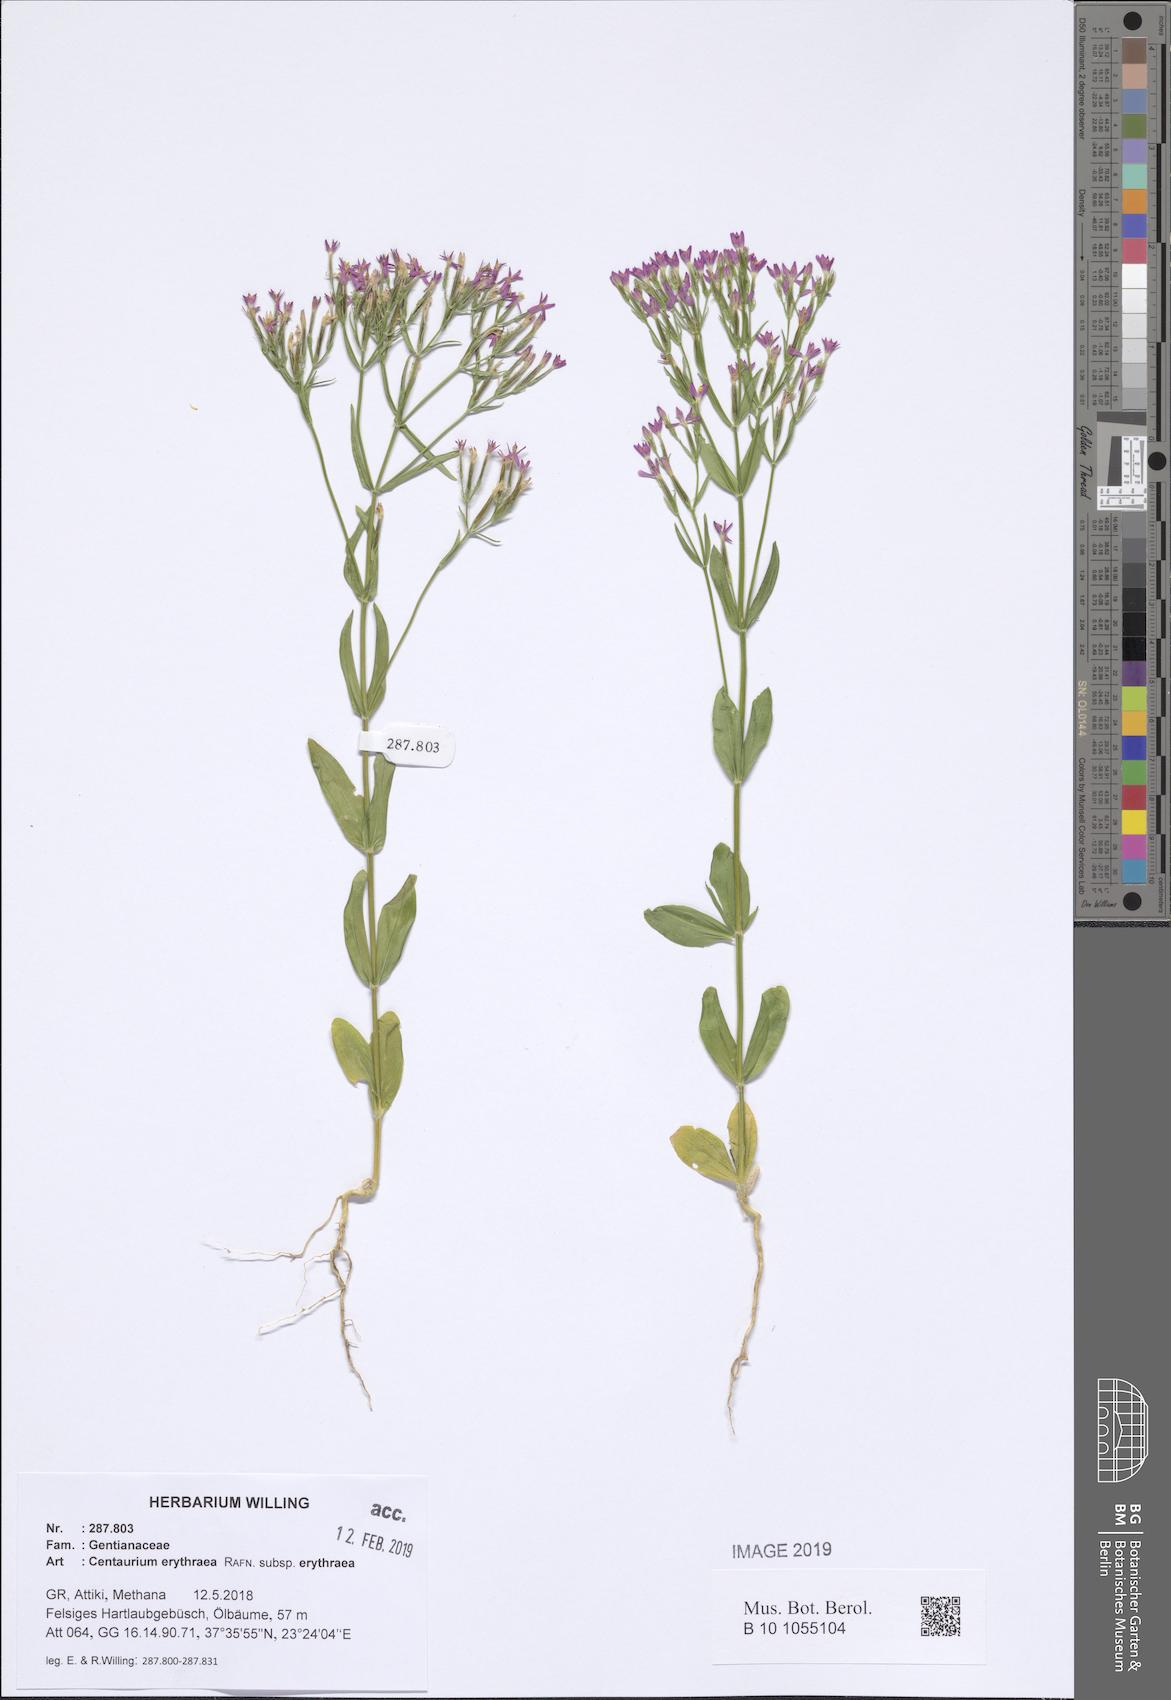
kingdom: Plantae
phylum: Tracheophyta
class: Magnoliopsida
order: Gentianales
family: Gentianaceae
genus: Centaurium
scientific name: Centaurium erythraea
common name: Common centaury
